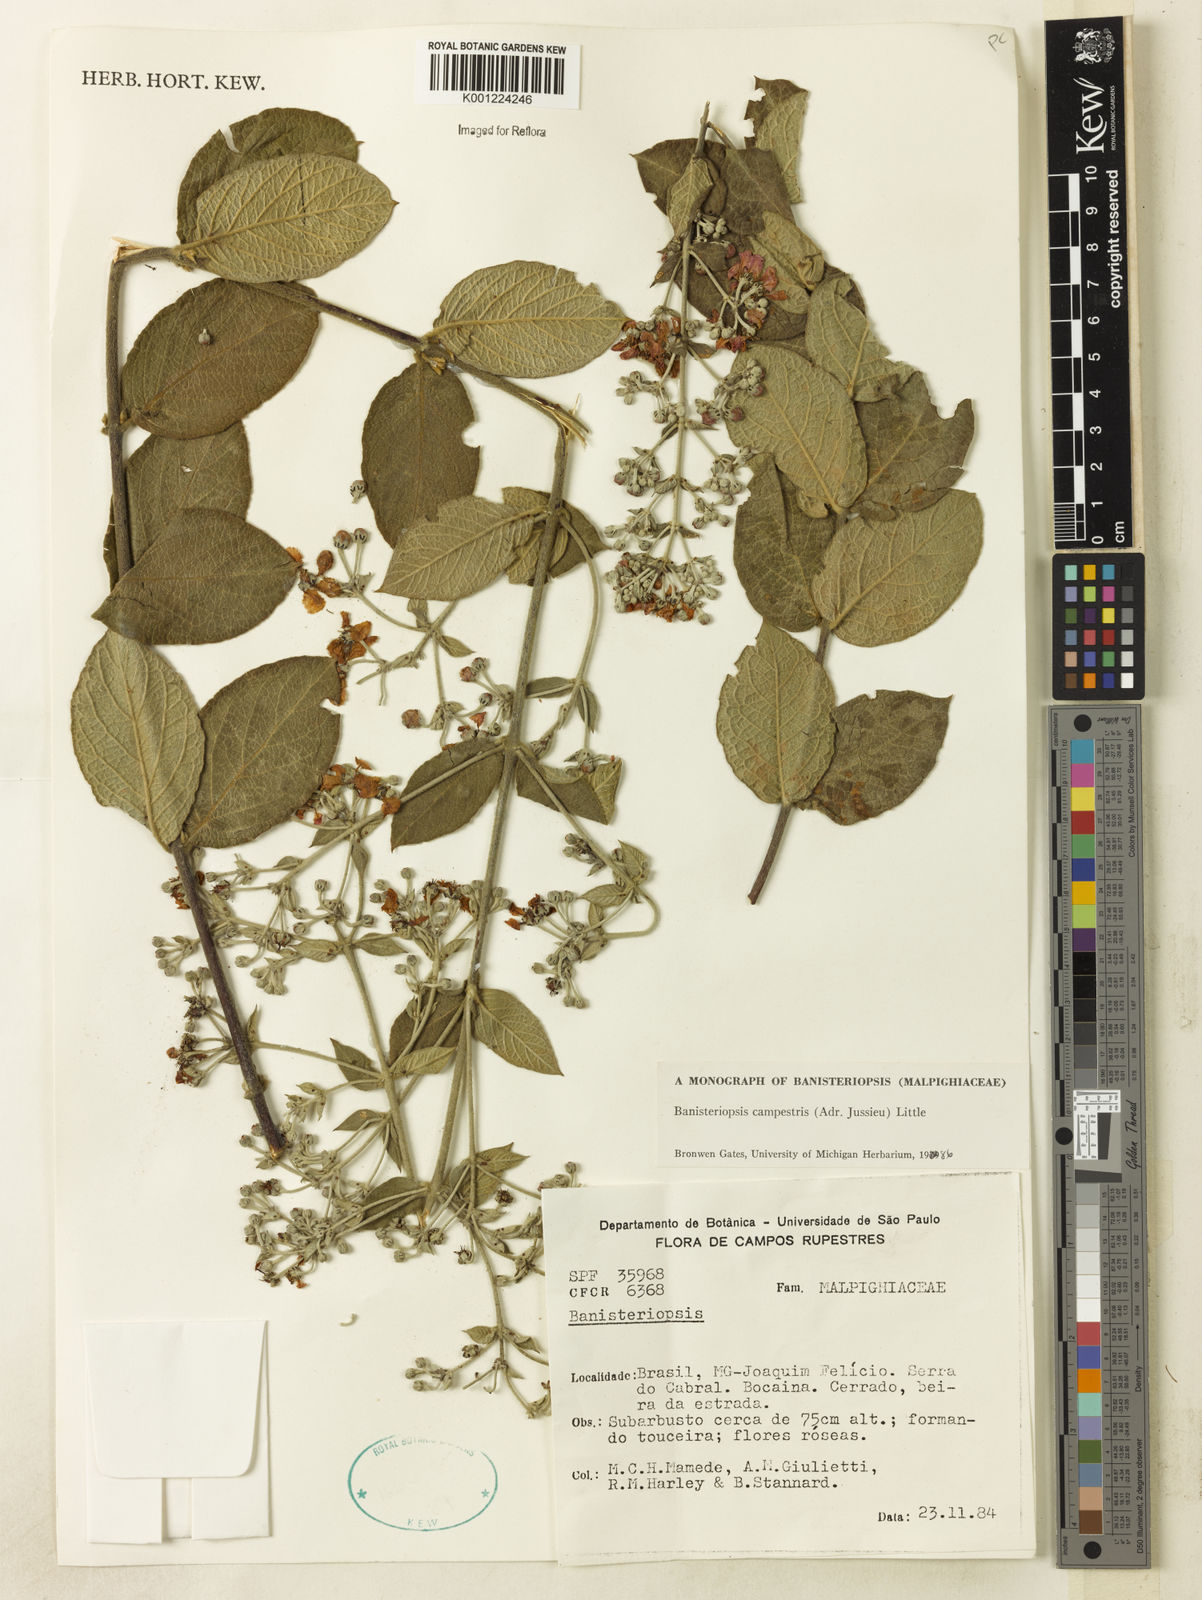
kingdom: Plantae
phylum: Tracheophyta
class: Magnoliopsida
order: Malpighiales
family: Malpighiaceae
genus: Banisteriopsis
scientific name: Banisteriopsis campestris
